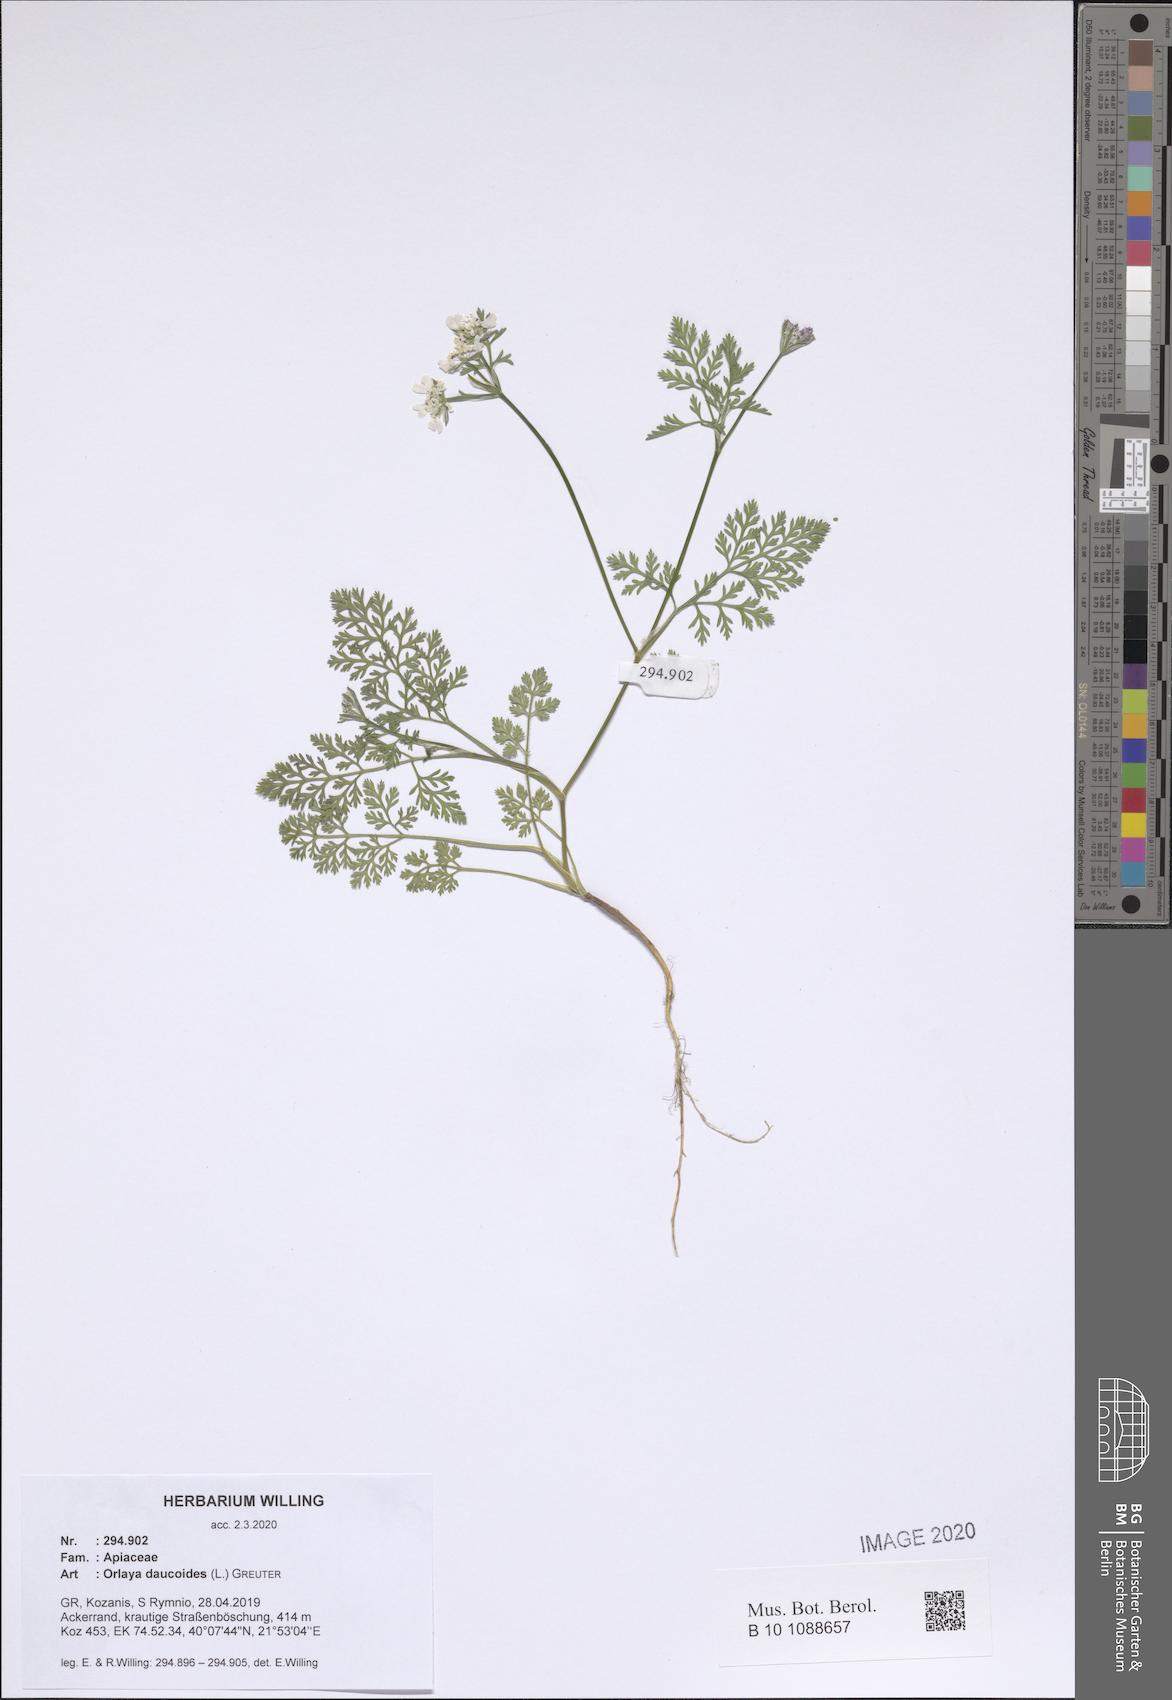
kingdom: Plantae
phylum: Tracheophyta
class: Magnoliopsida
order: Apiales
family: Apiaceae
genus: Orlaya
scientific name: Orlaya daucoides
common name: Flat-fruit orlaya
